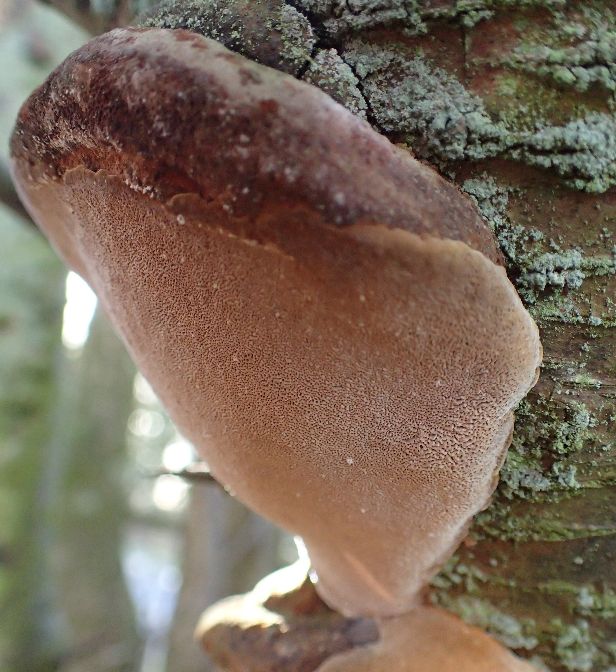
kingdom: Fungi
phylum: Basidiomycota
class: Agaricomycetes
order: Hymenochaetales
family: Hymenochaetaceae
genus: Phellinus
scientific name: Phellinus pomaceus
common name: blomme-ildporesvamp
